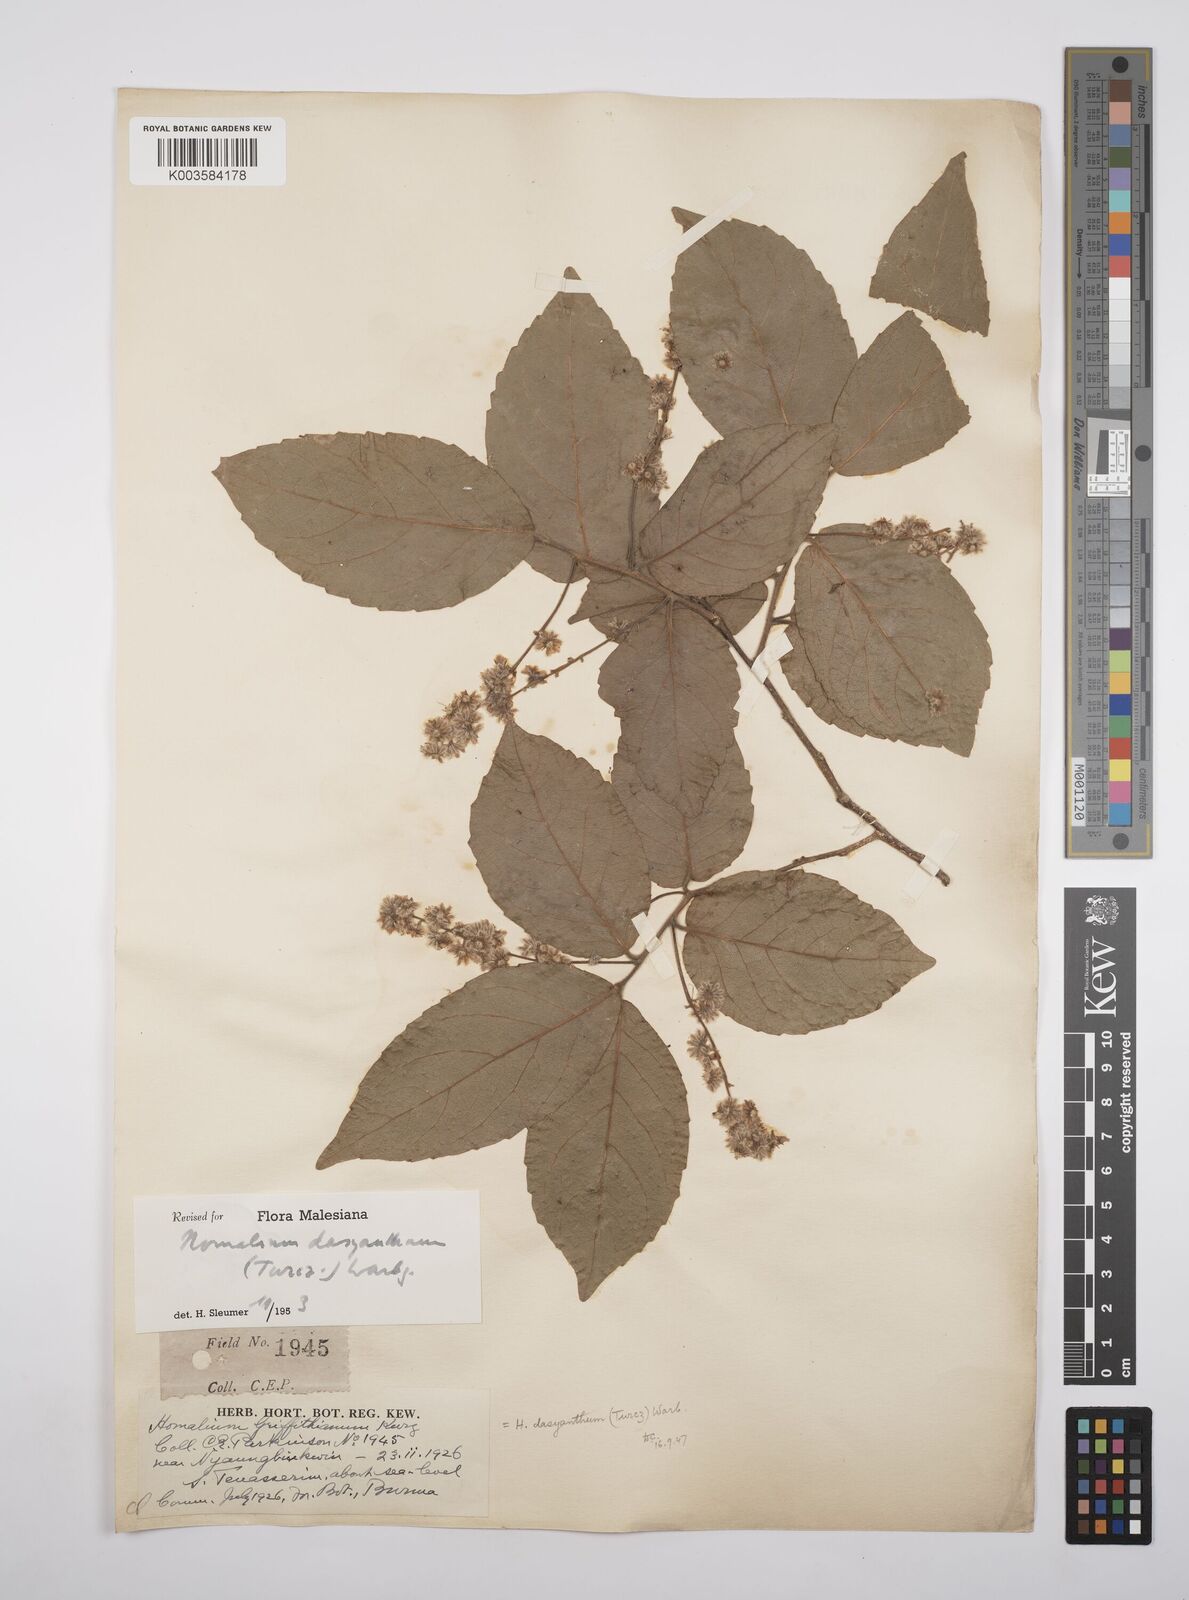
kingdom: Plantae
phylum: Tracheophyta
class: Magnoliopsida
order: Malpighiales
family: Salicaceae
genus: Homalium
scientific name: Homalium dasyanthum
